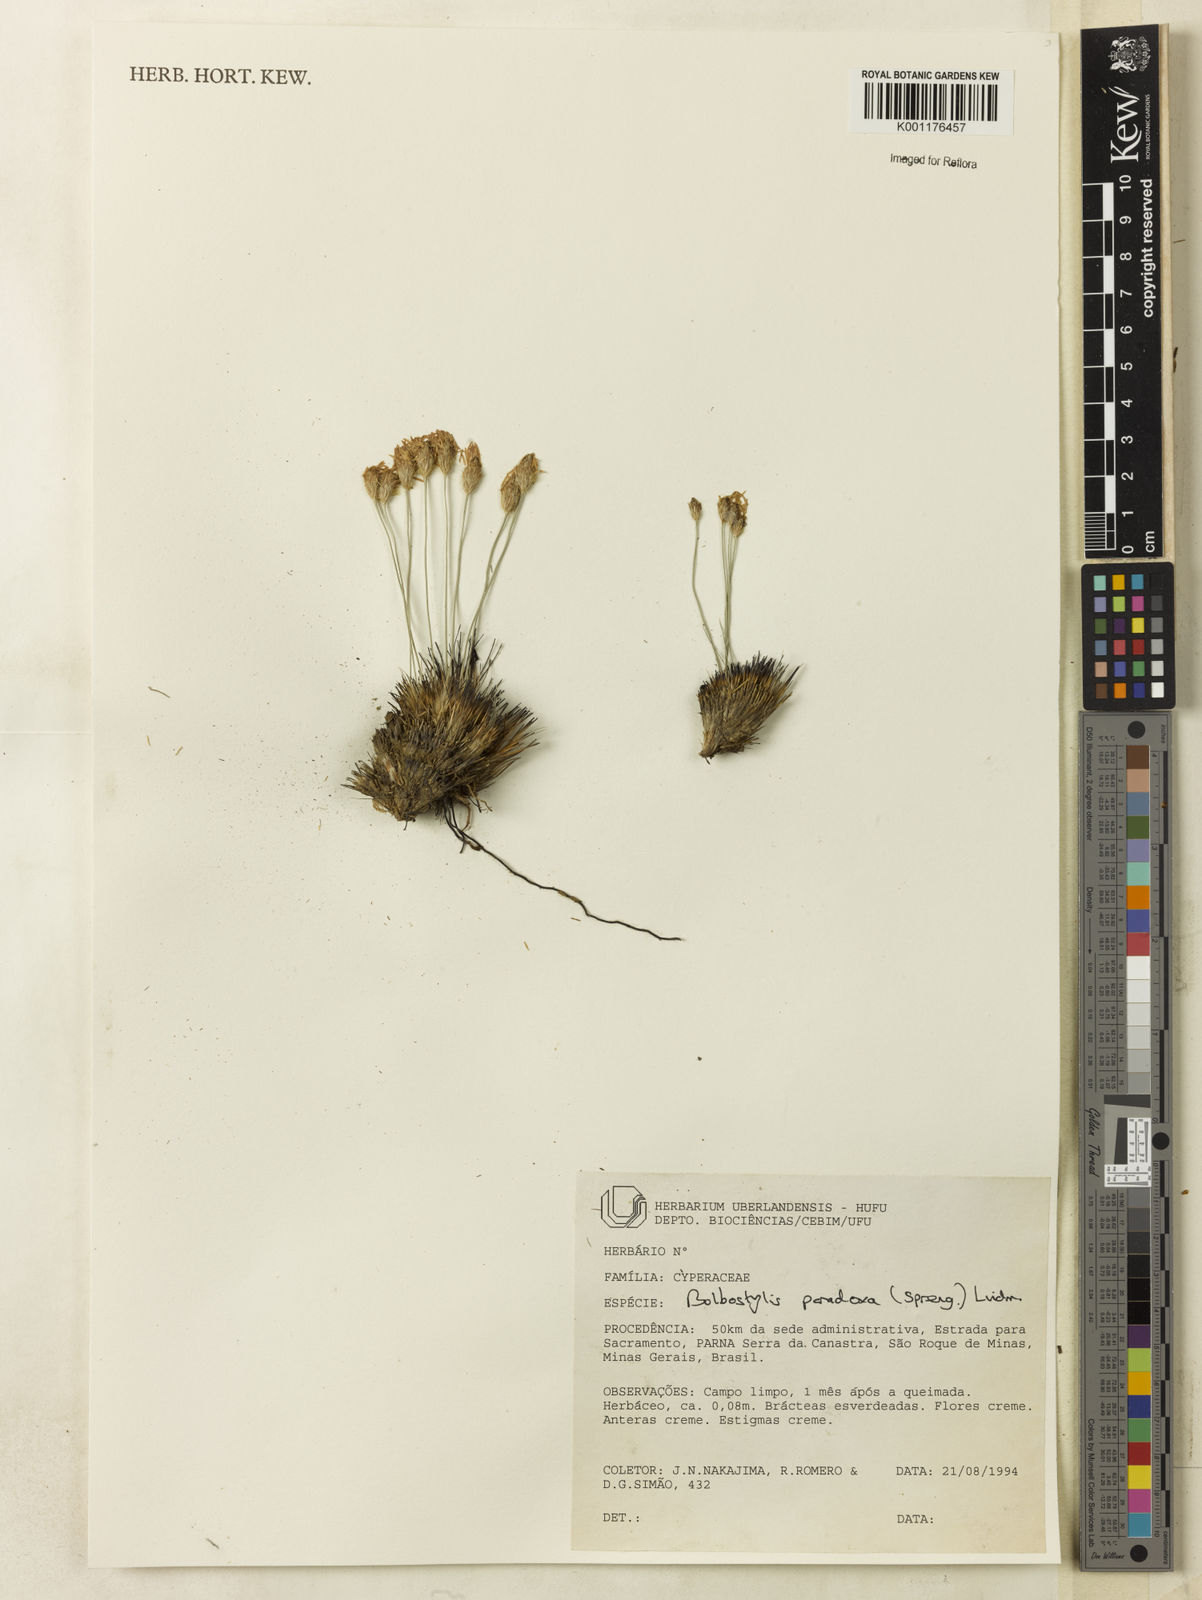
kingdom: Plantae
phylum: Tracheophyta
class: Liliopsida
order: Poales
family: Cyperaceae
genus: Bulbostylis
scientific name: Bulbostylis paradoxa
